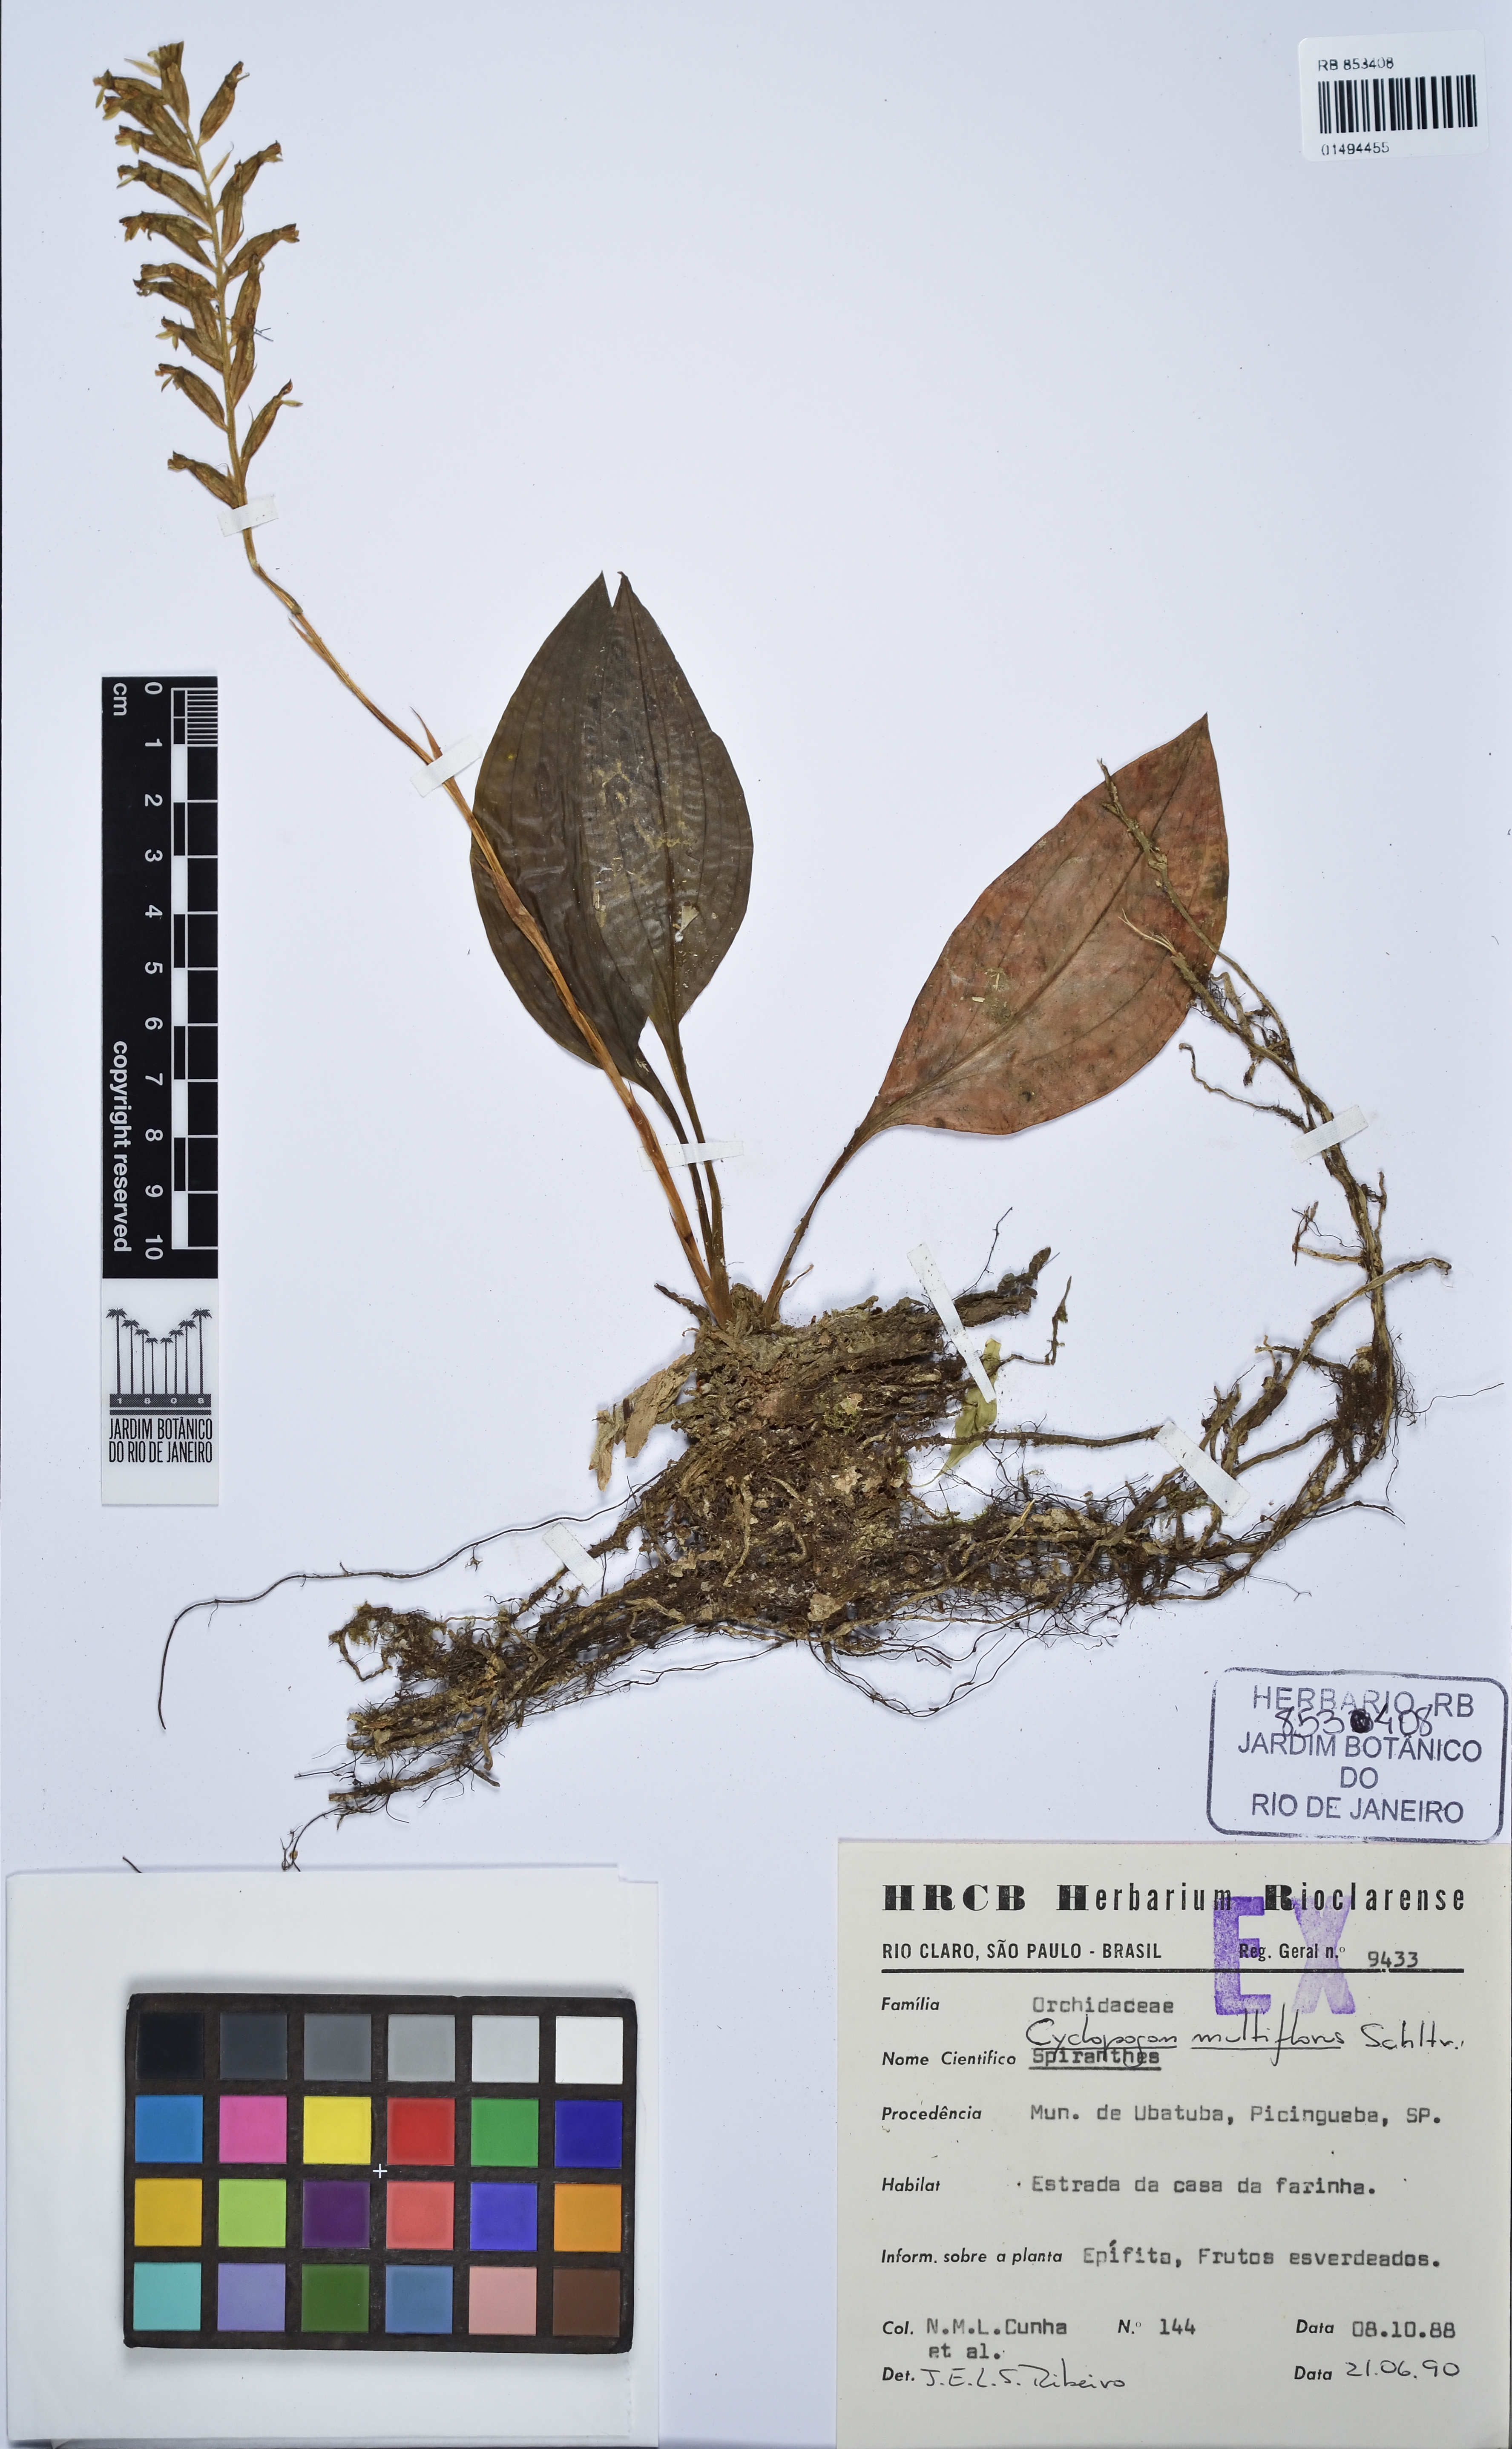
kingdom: Plantae
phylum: Tracheophyta
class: Liliopsida
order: Asparagales
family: Orchidaceae
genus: Cyclopogon
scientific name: Cyclopogon multiflorus
